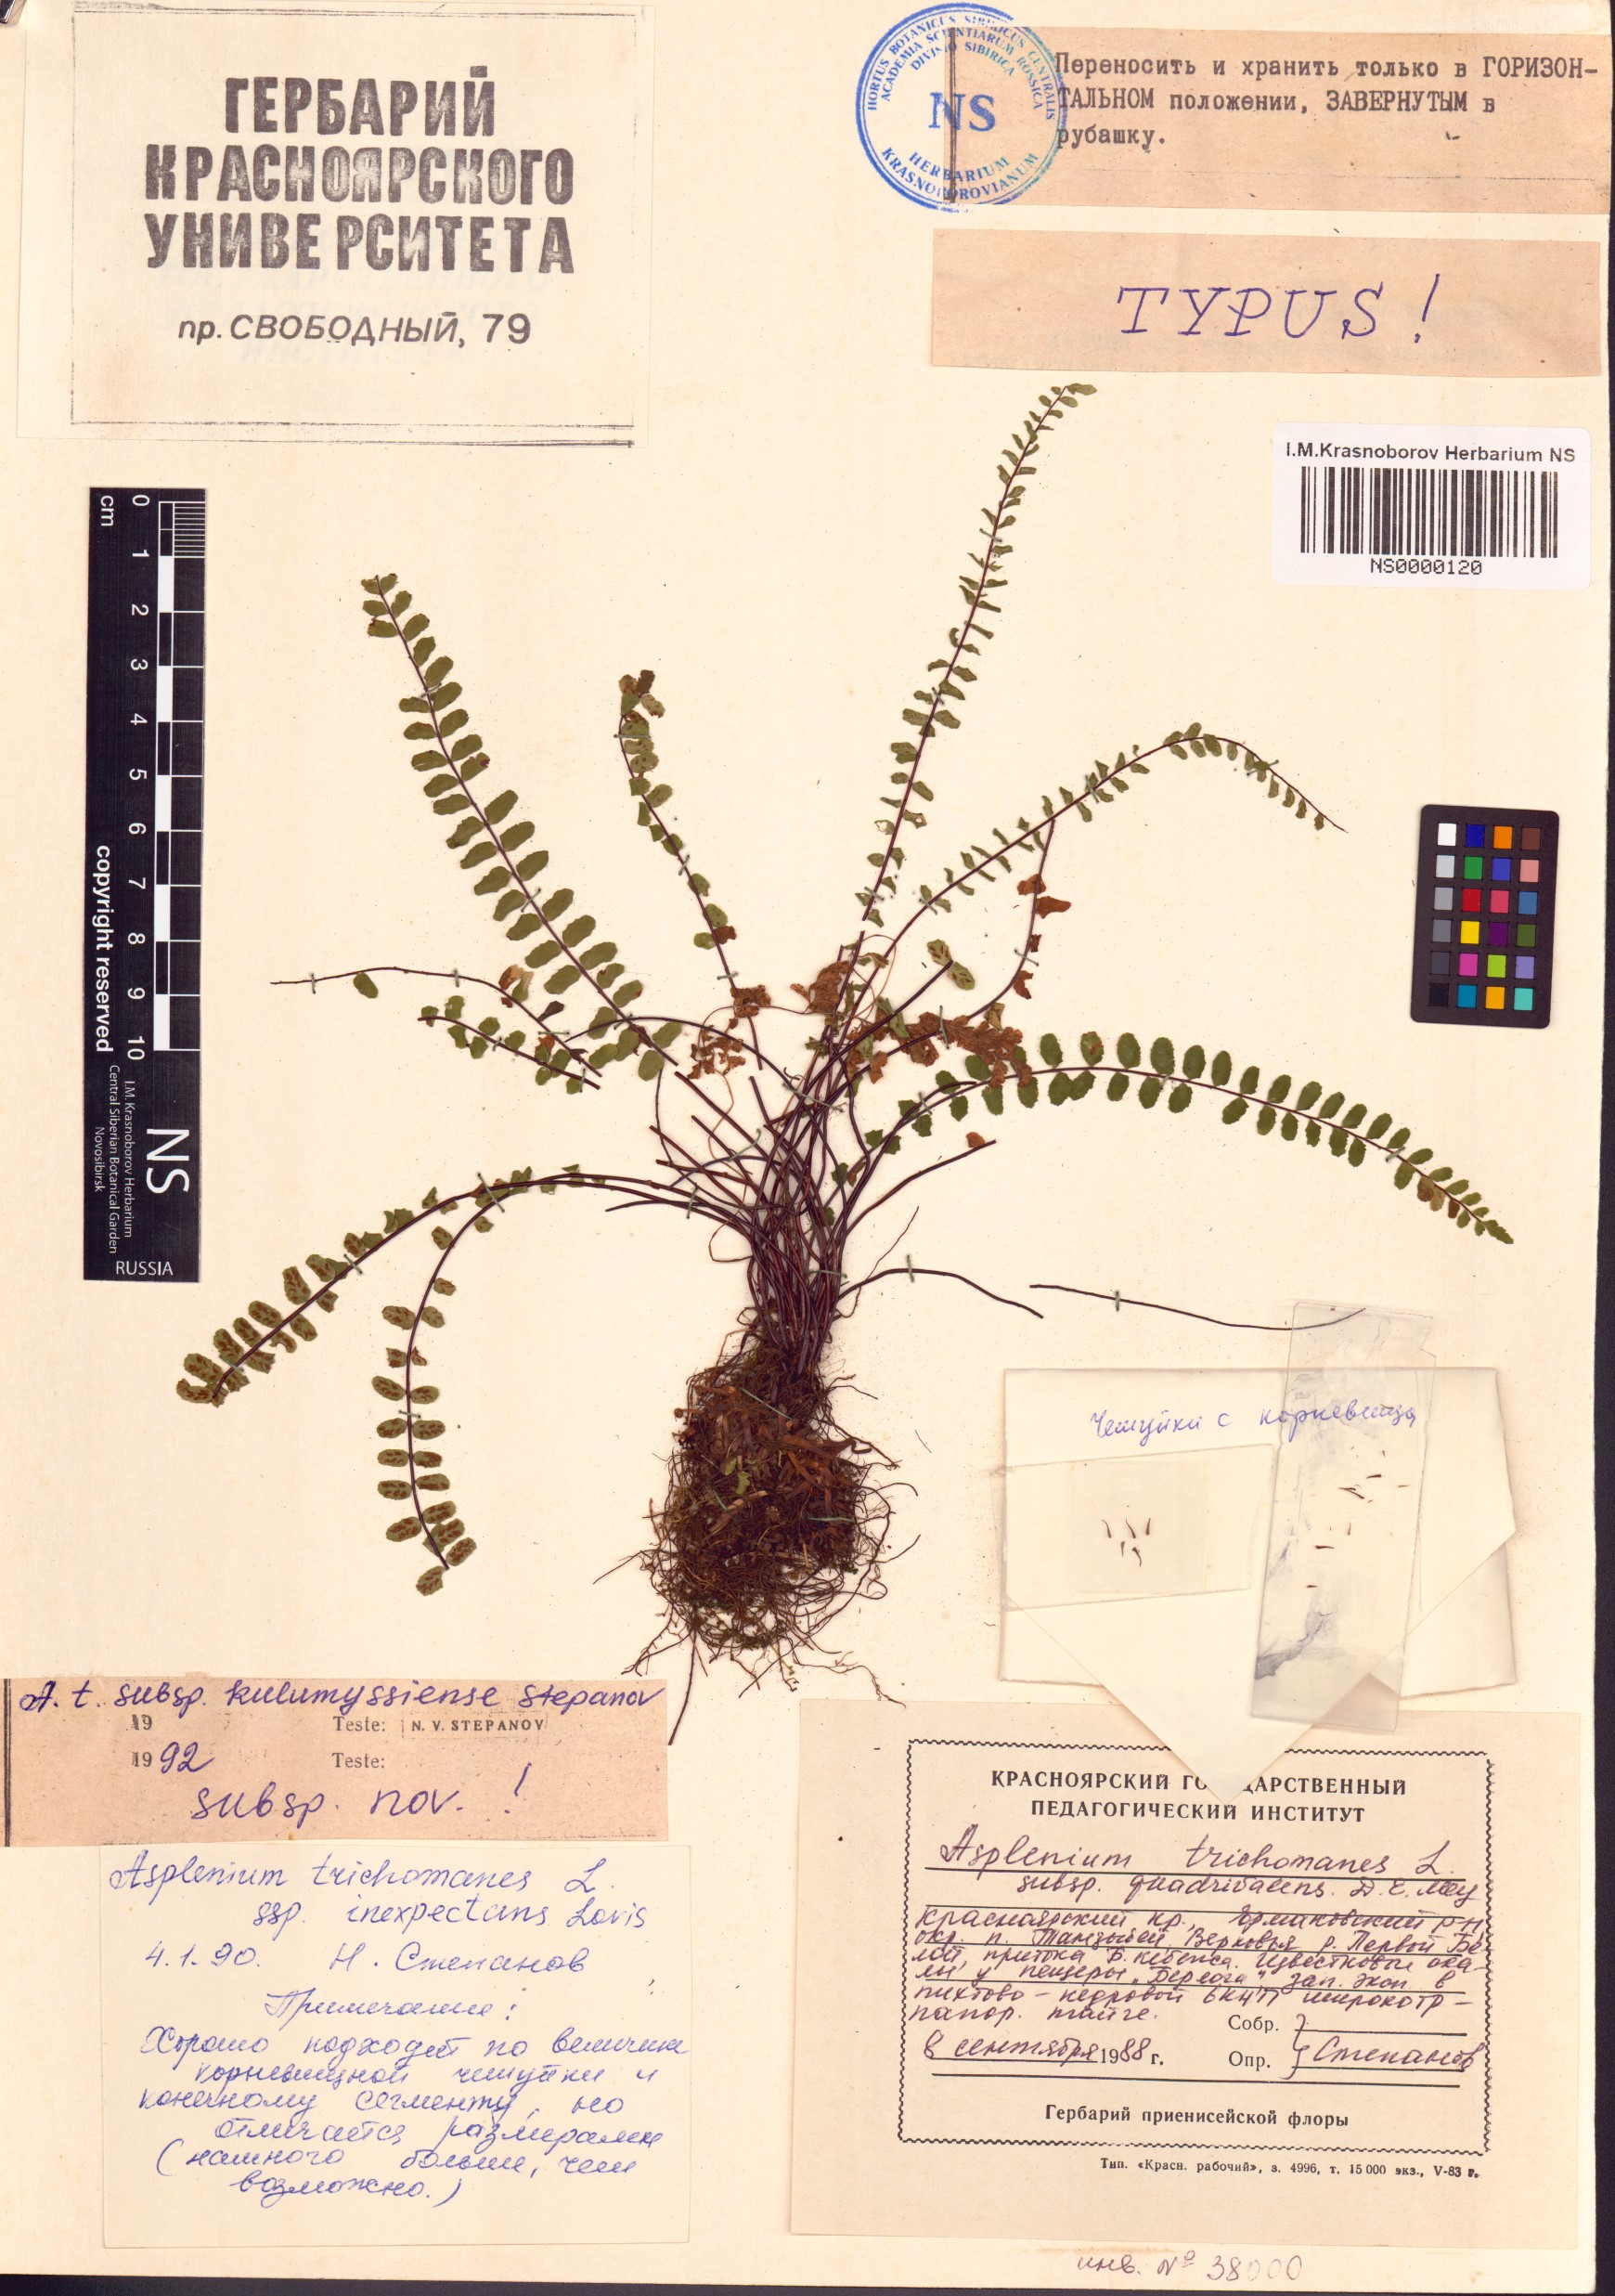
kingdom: Plantae
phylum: Tracheophyta
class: Polypodiopsida
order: Polypodiales
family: Aspleniaceae
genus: Asplenium
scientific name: Asplenium quadrivalens
